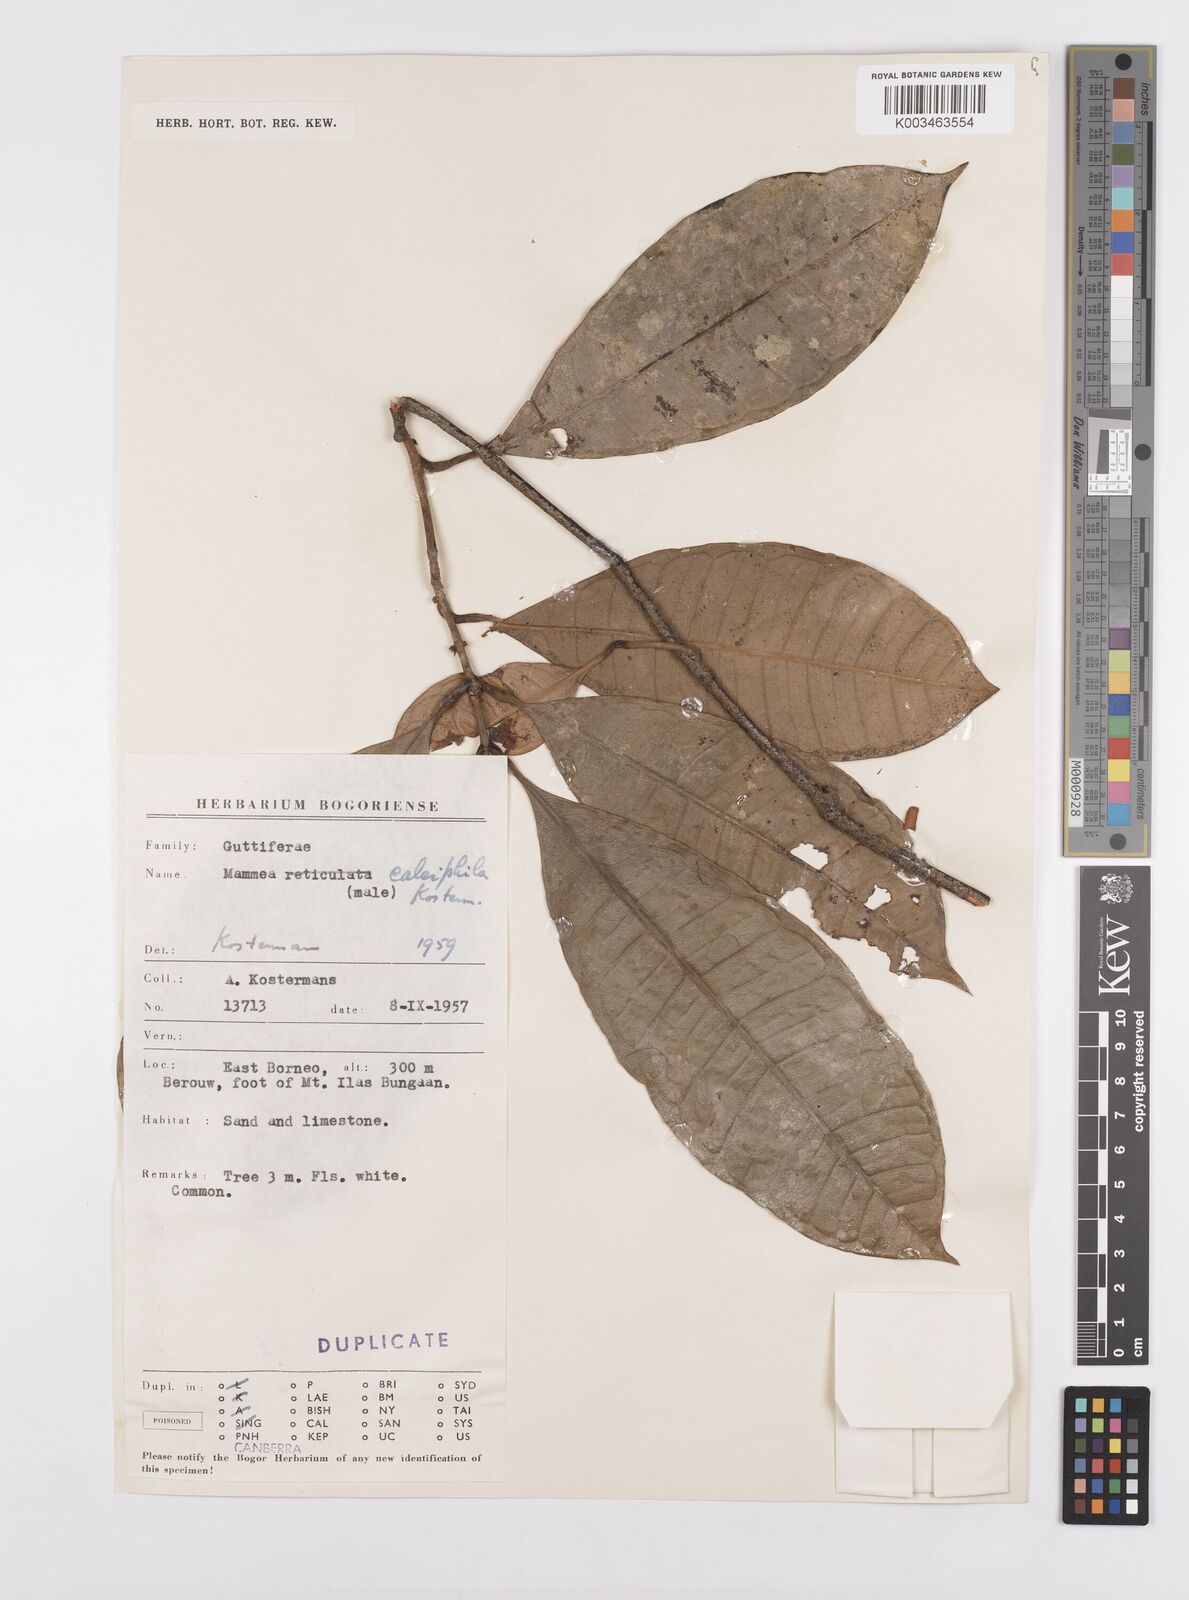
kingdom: Plantae
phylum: Tracheophyta
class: Magnoliopsida
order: Malpighiales
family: Calophyllaceae
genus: Mammea
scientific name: Mammea calciphila
